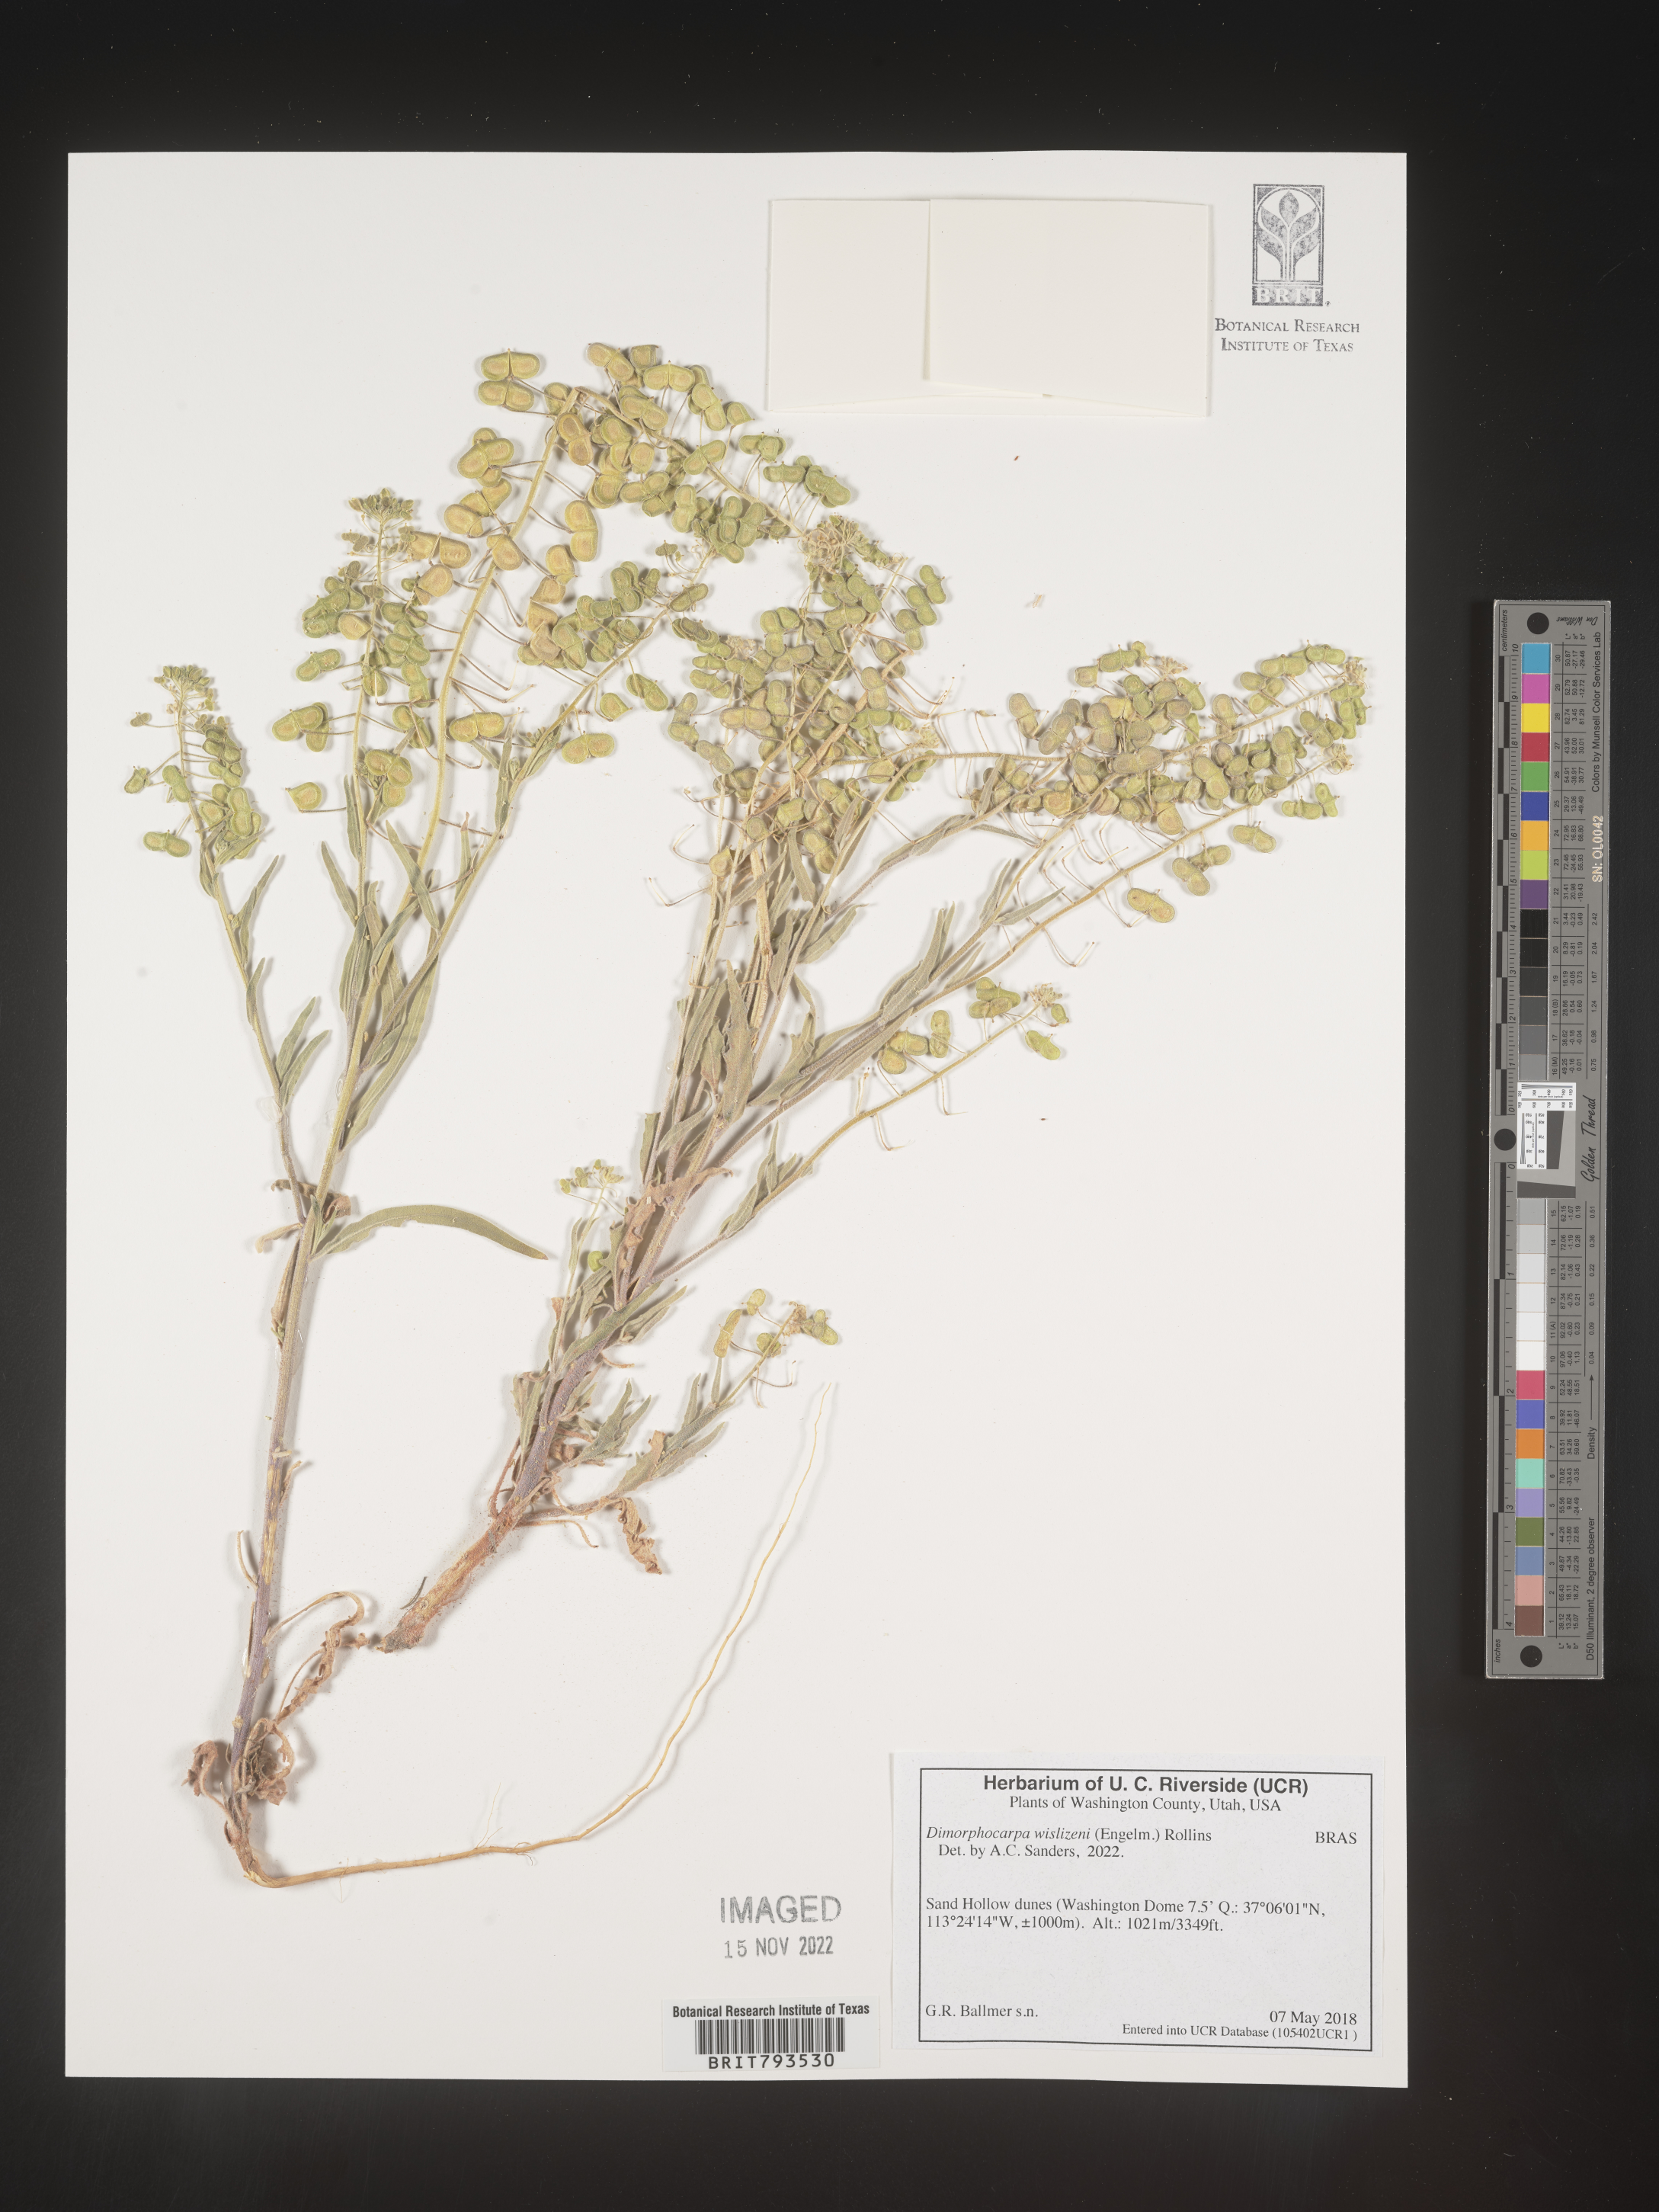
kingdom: Plantae
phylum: Tracheophyta
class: Magnoliopsida
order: Brassicales
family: Brassicaceae
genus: Dimorphocarpa
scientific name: Dimorphocarpa wislizenii
